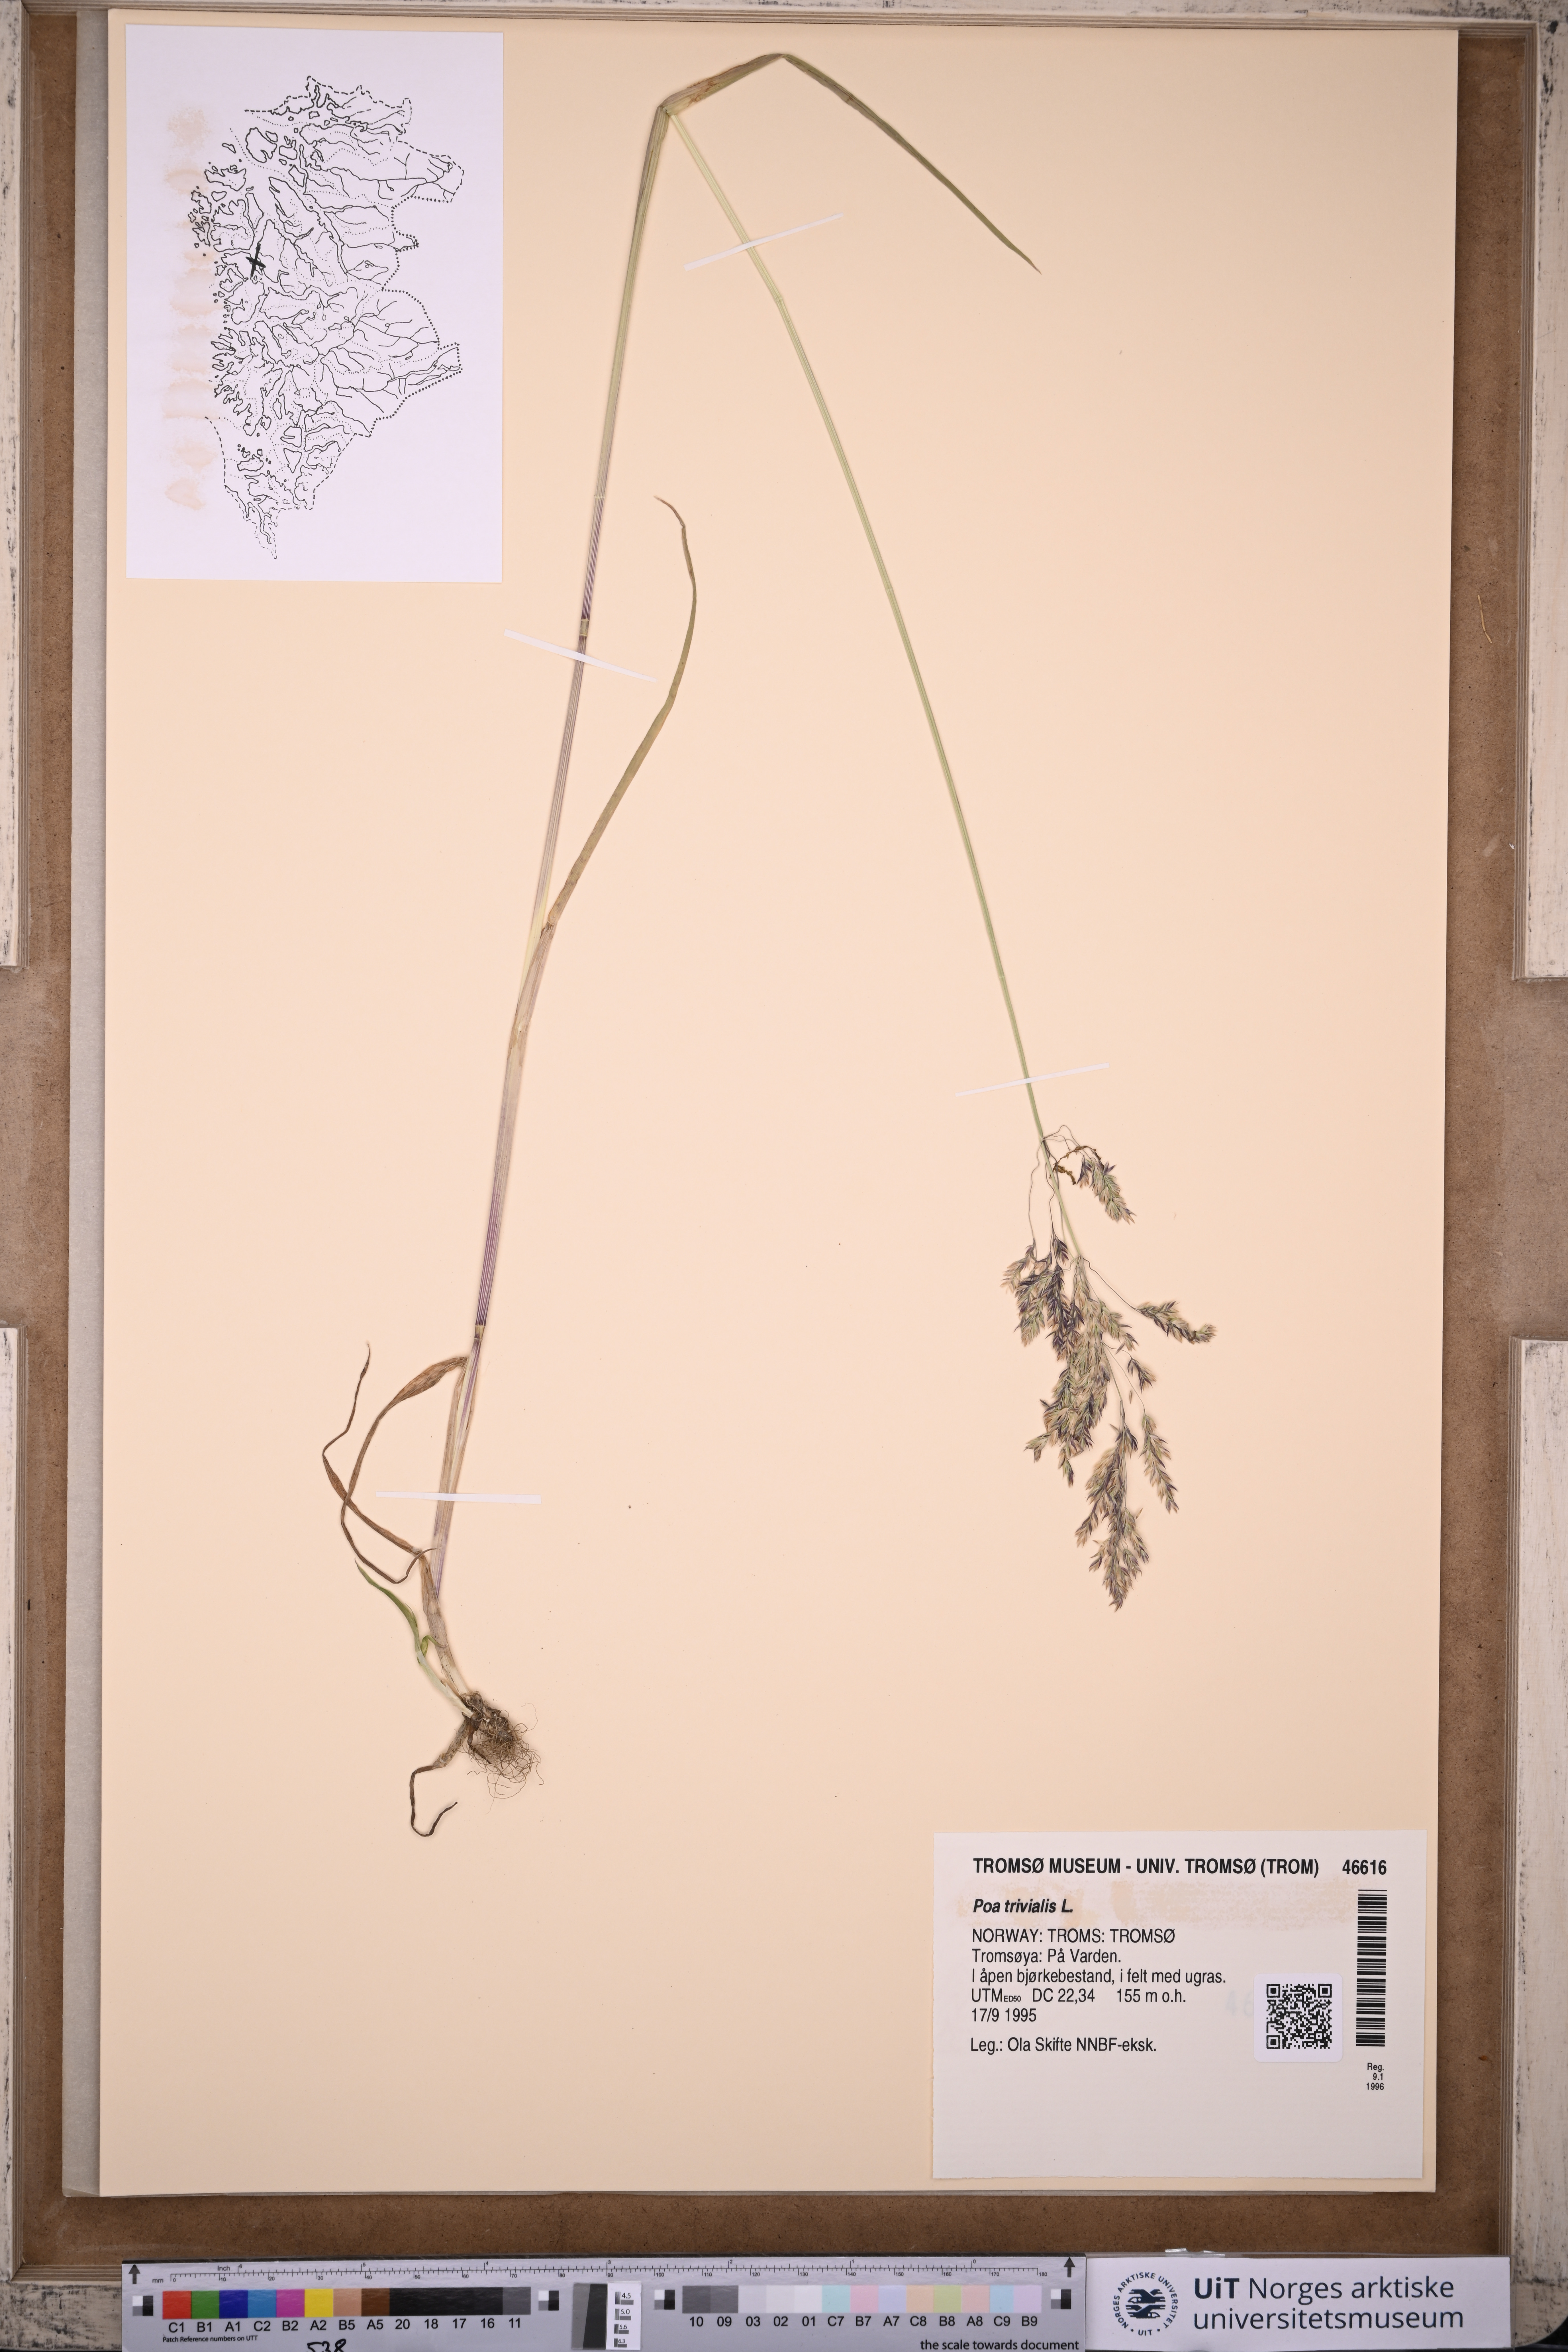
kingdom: Plantae
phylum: Tracheophyta
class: Liliopsida
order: Poales
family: Poaceae
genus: Poa
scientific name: Poa trivialis
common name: Rough bluegrass
